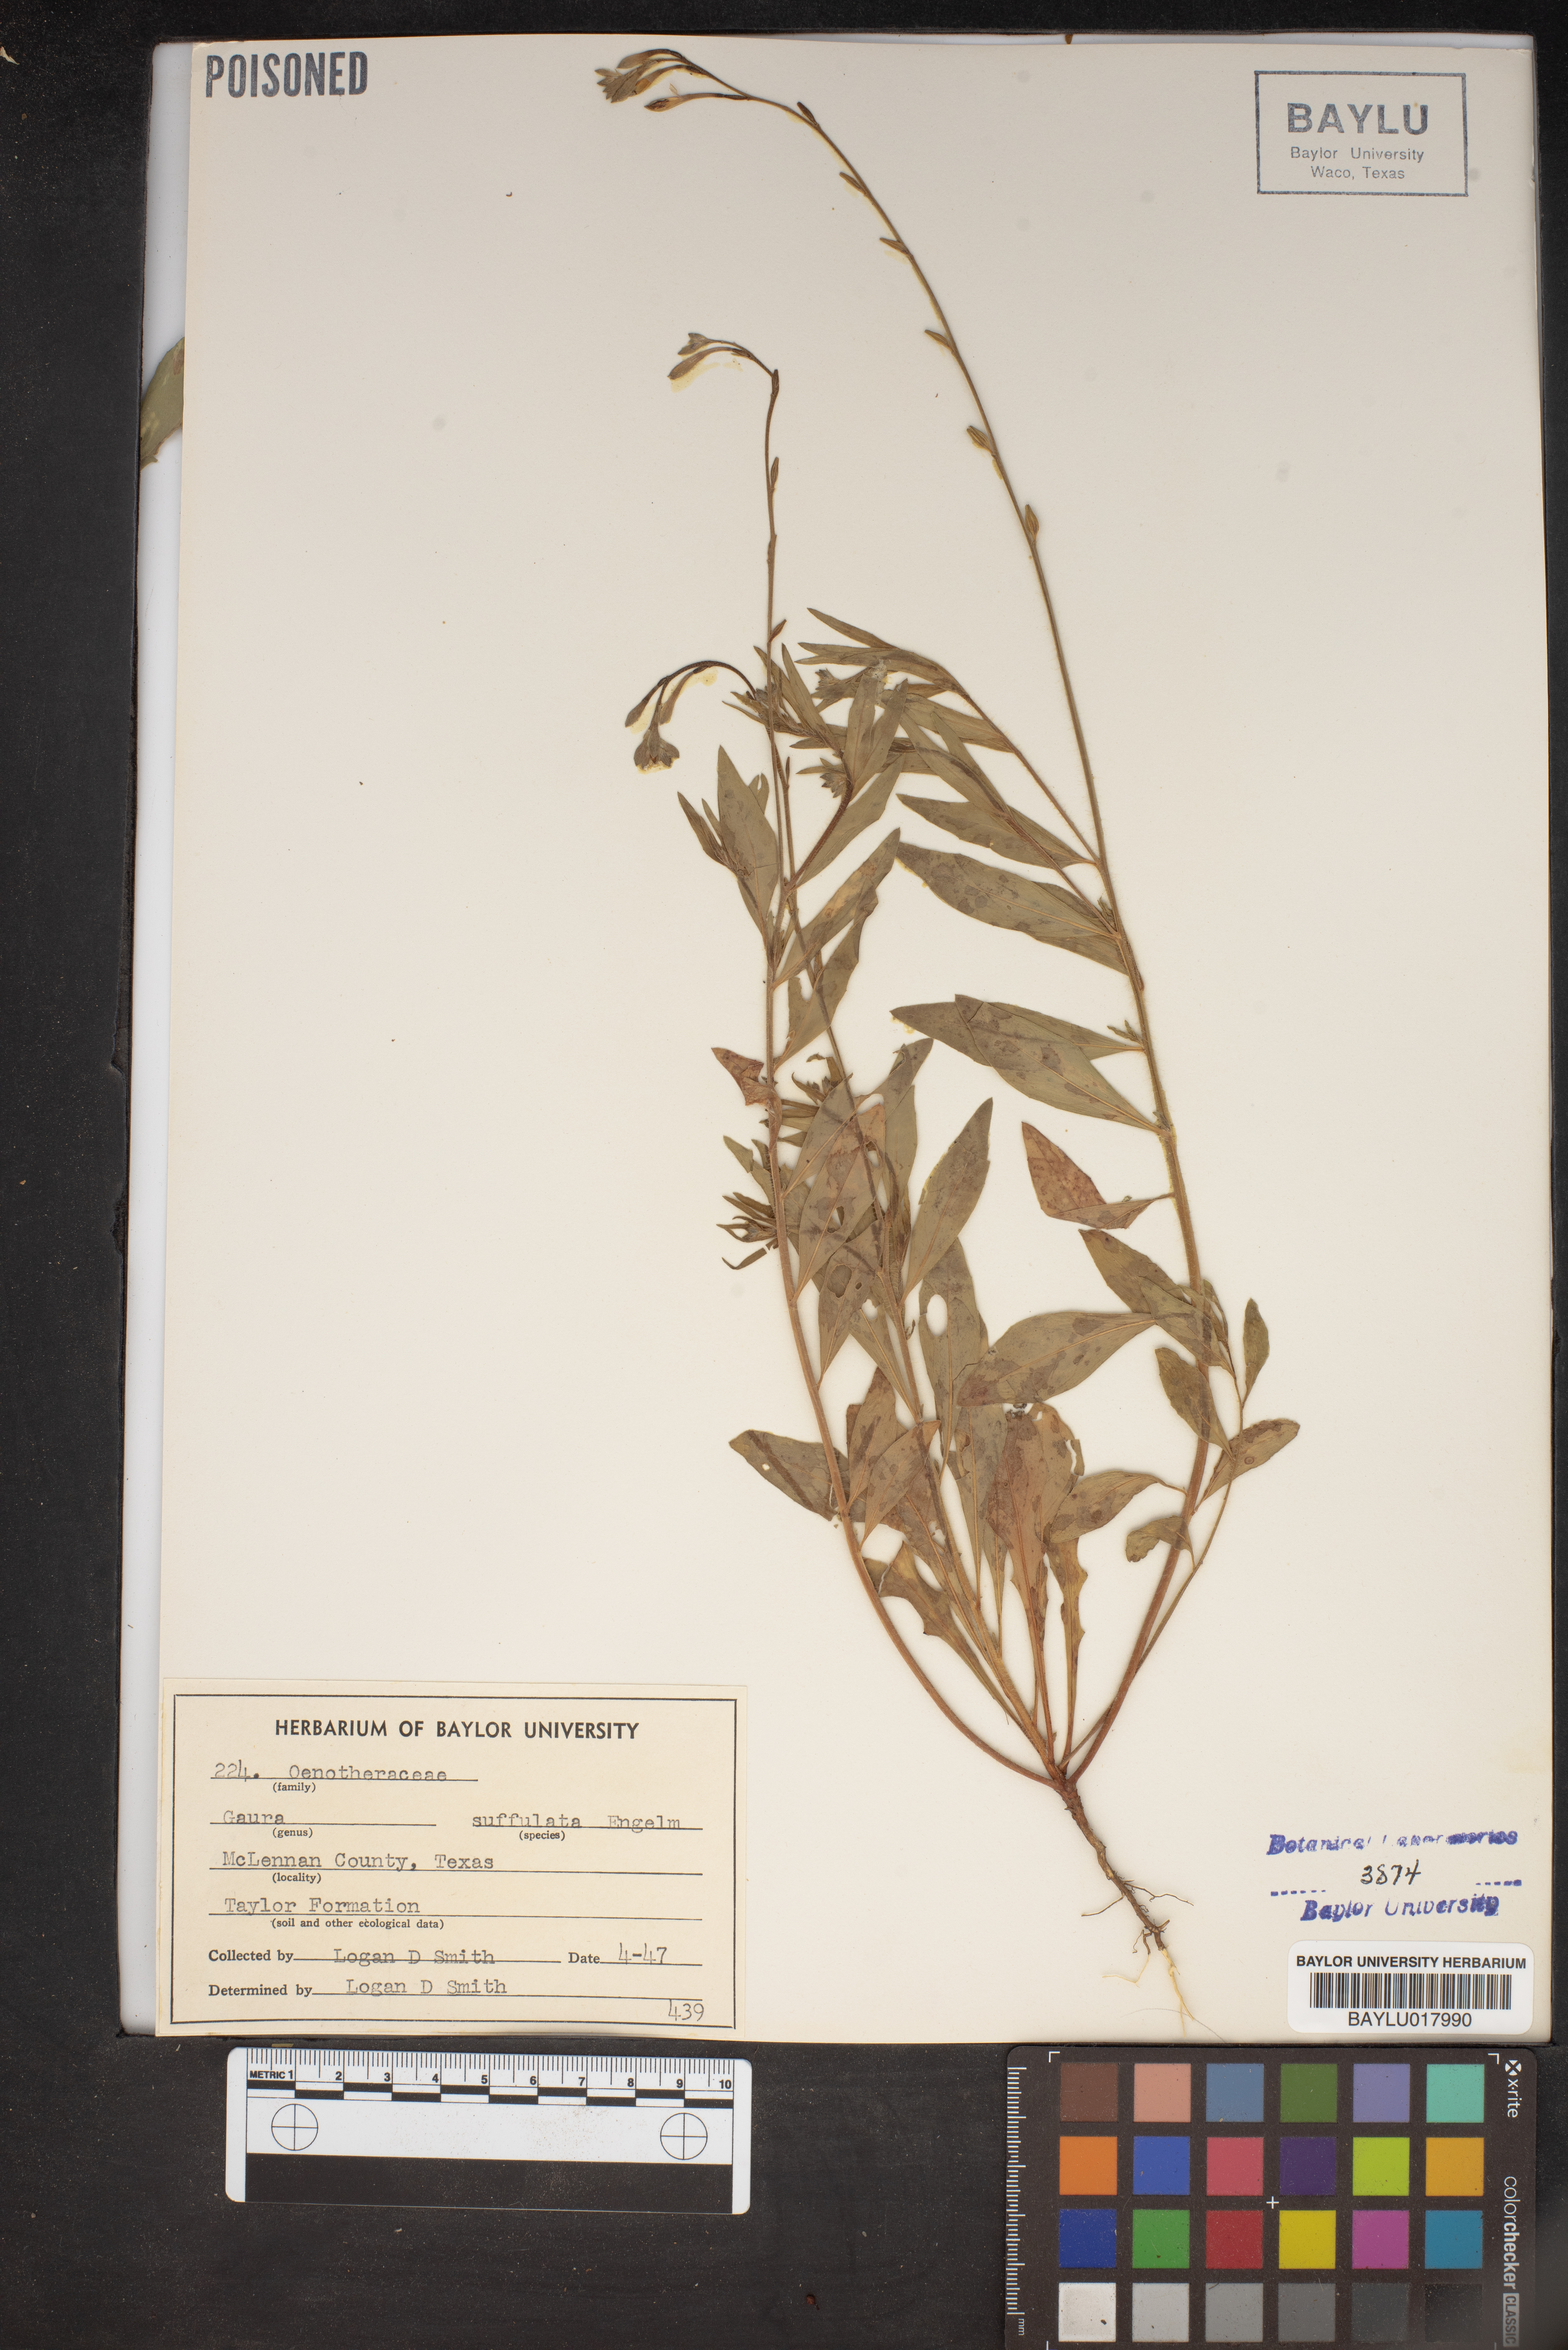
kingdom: Plantae
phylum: Tracheophyta
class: Magnoliopsida
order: Myrtales
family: Onagraceae
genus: Oenothera
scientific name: Oenothera Gaura suffulta
